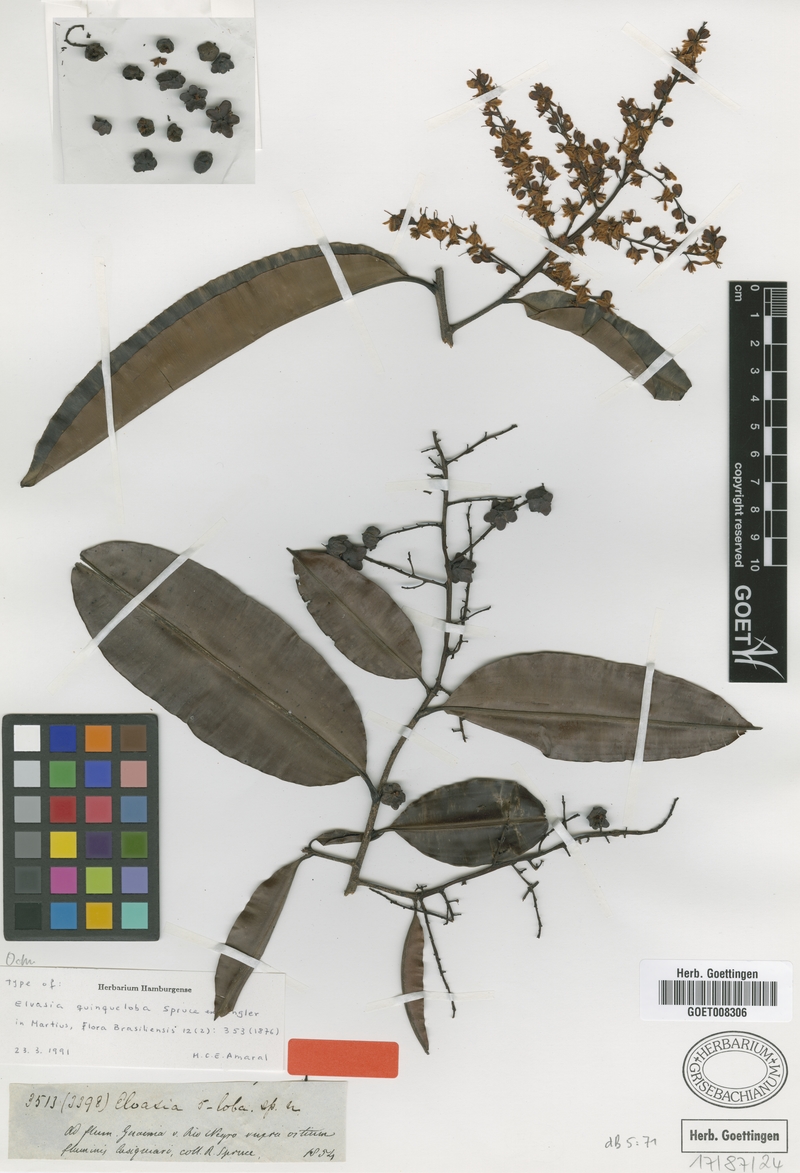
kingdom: Plantae
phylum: Tracheophyta
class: Magnoliopsida
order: Malpighiales
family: Ochnaceae
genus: Elvasia
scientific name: Elvasia quinqueloba
